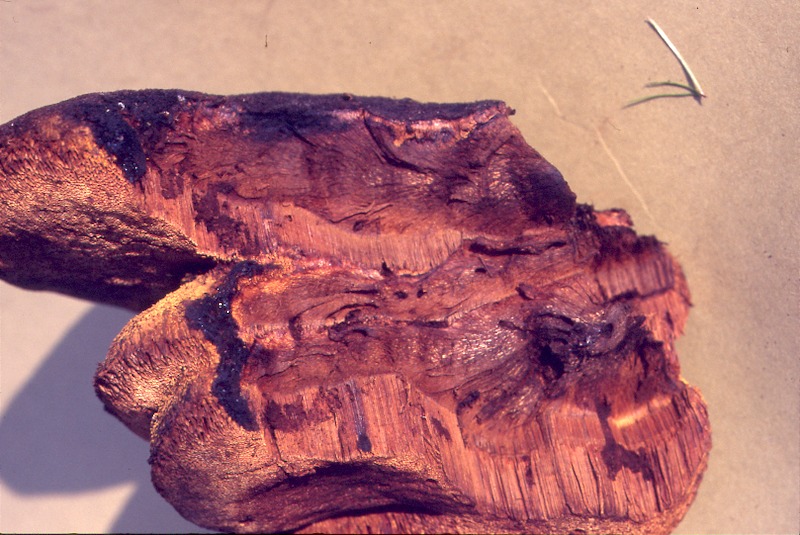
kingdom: Fungi
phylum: Basidiomycota
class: Agaricomycetes
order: Hymenochaetales
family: Hymenochaetaceae
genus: Inonotus
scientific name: Inonotus hispidus
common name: Shaggy bracket
